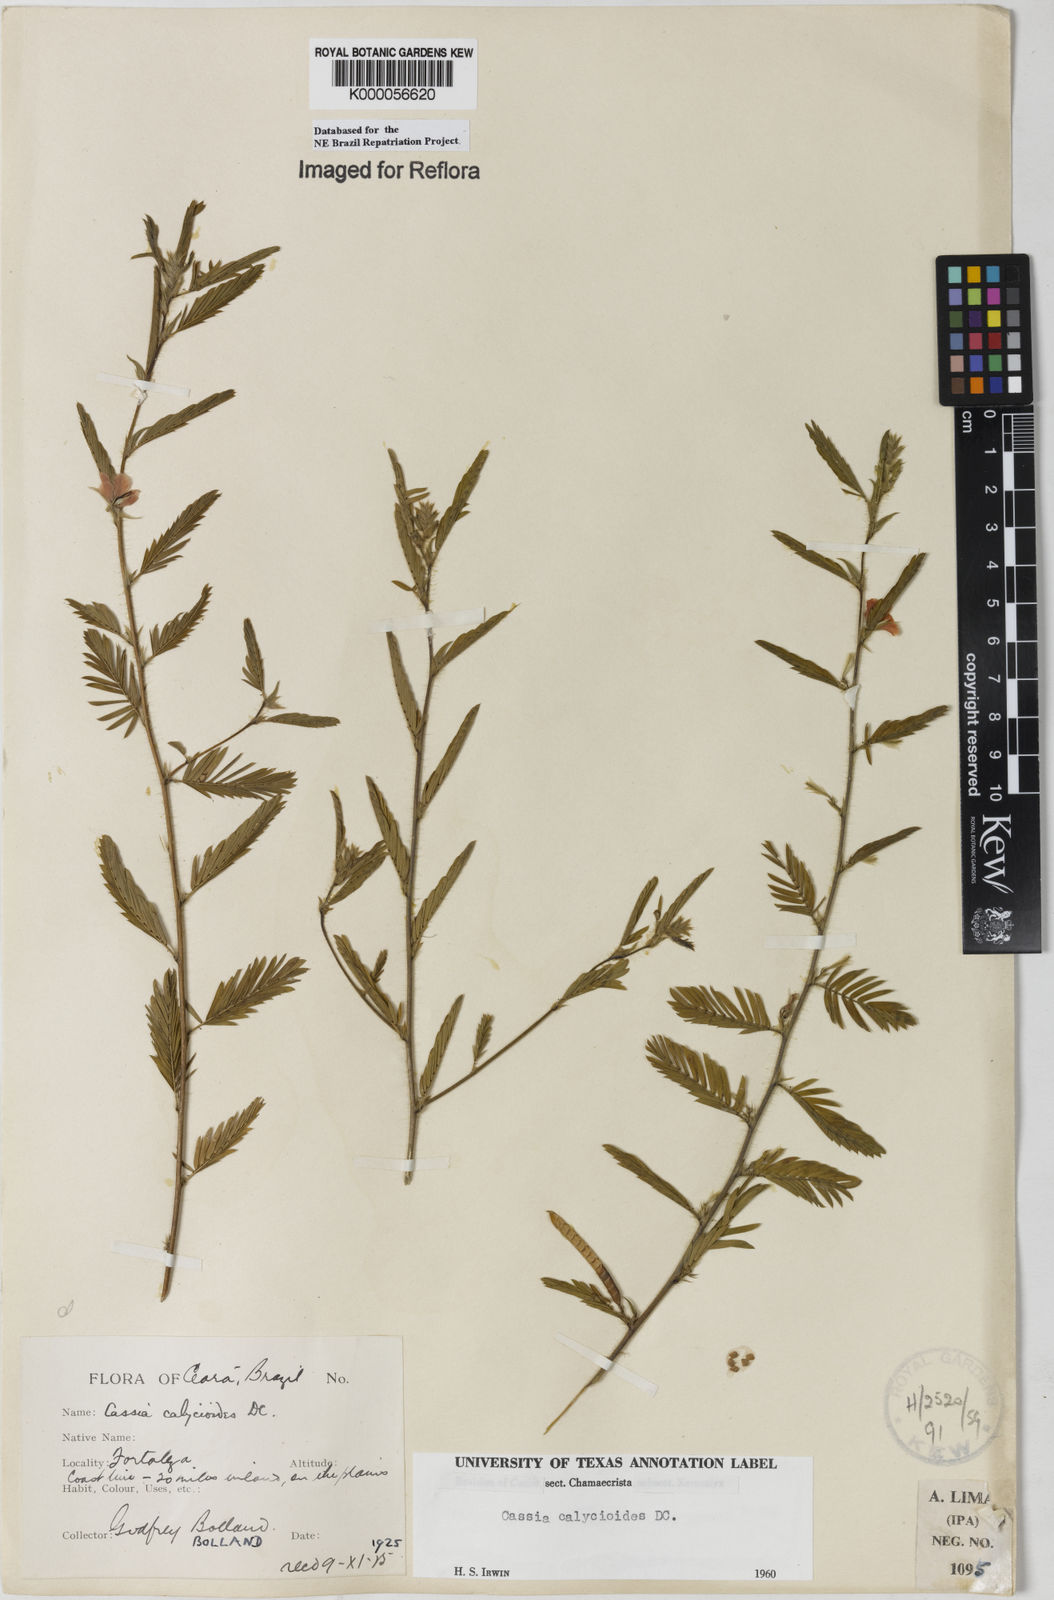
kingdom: Plantae
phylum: Tracheophyta
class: Magnoliopsida
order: Fabales
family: Fabaceae
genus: Chamaecrista
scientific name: Chamaecrista calycioides
